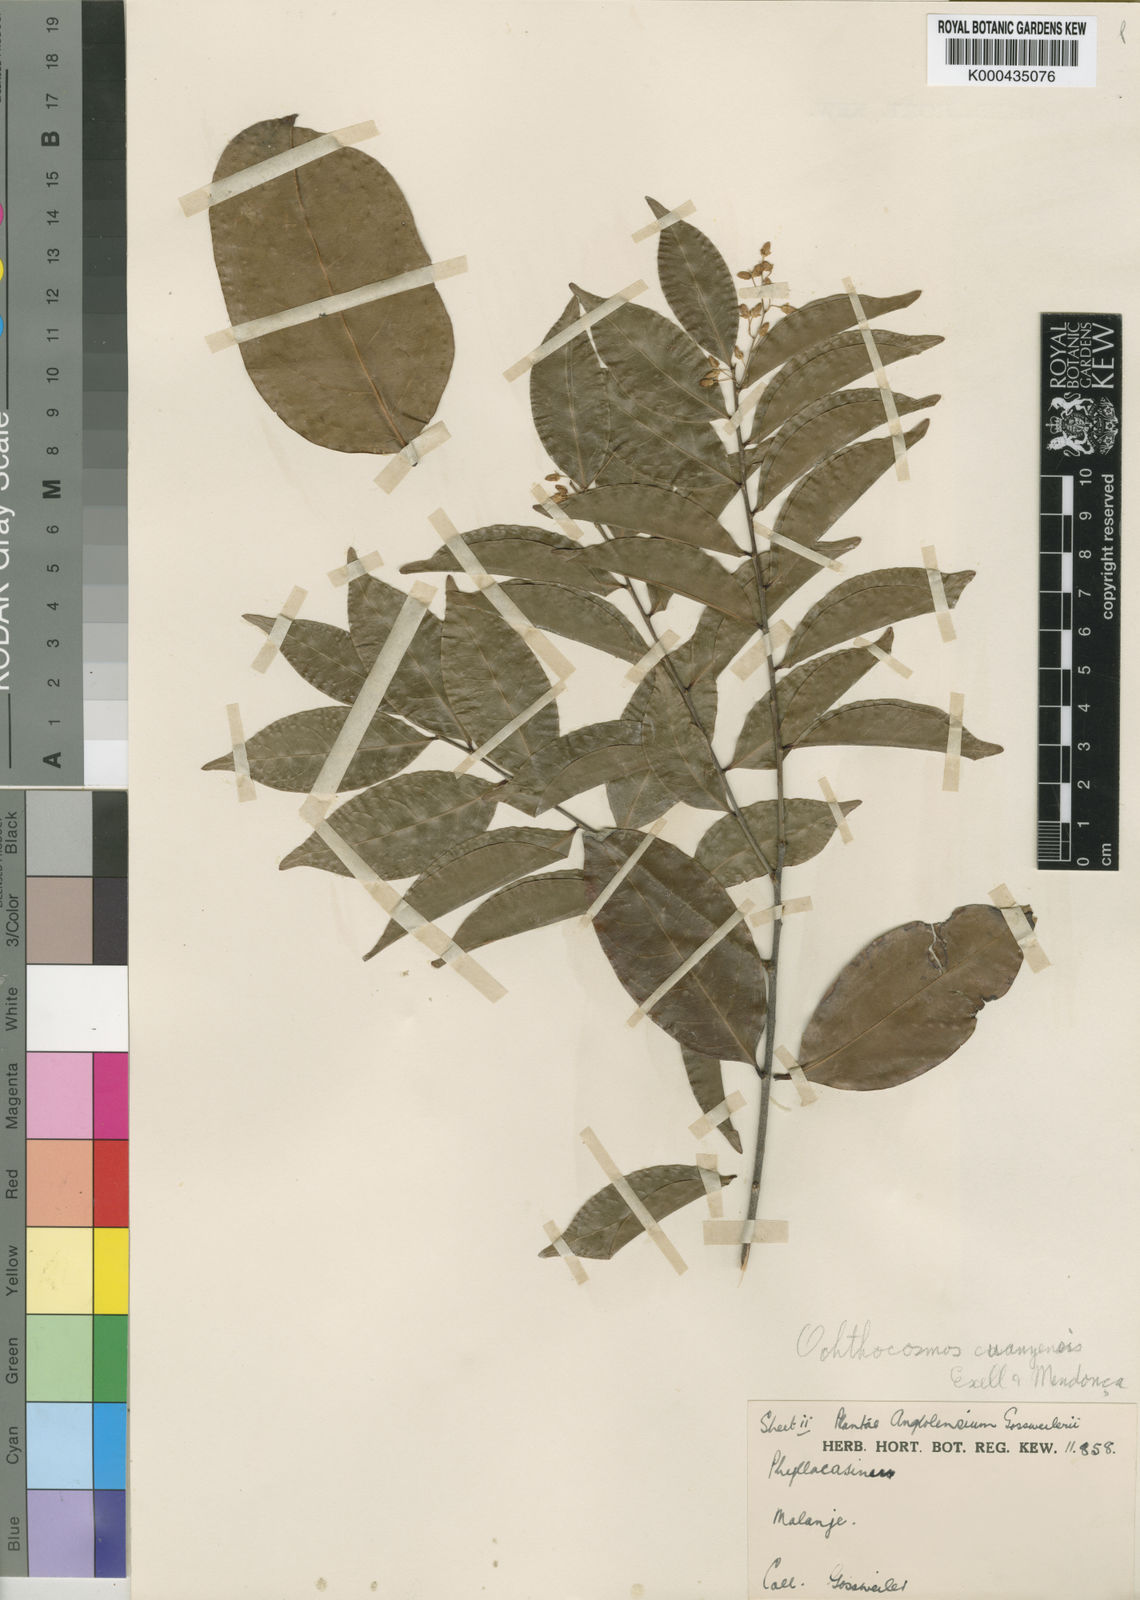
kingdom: Plantae
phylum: Tracheophyta
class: Magnoliopsida
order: Malpighiales
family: Ixonanthaceae
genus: Phyllocosmus
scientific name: Phyllocosmus
